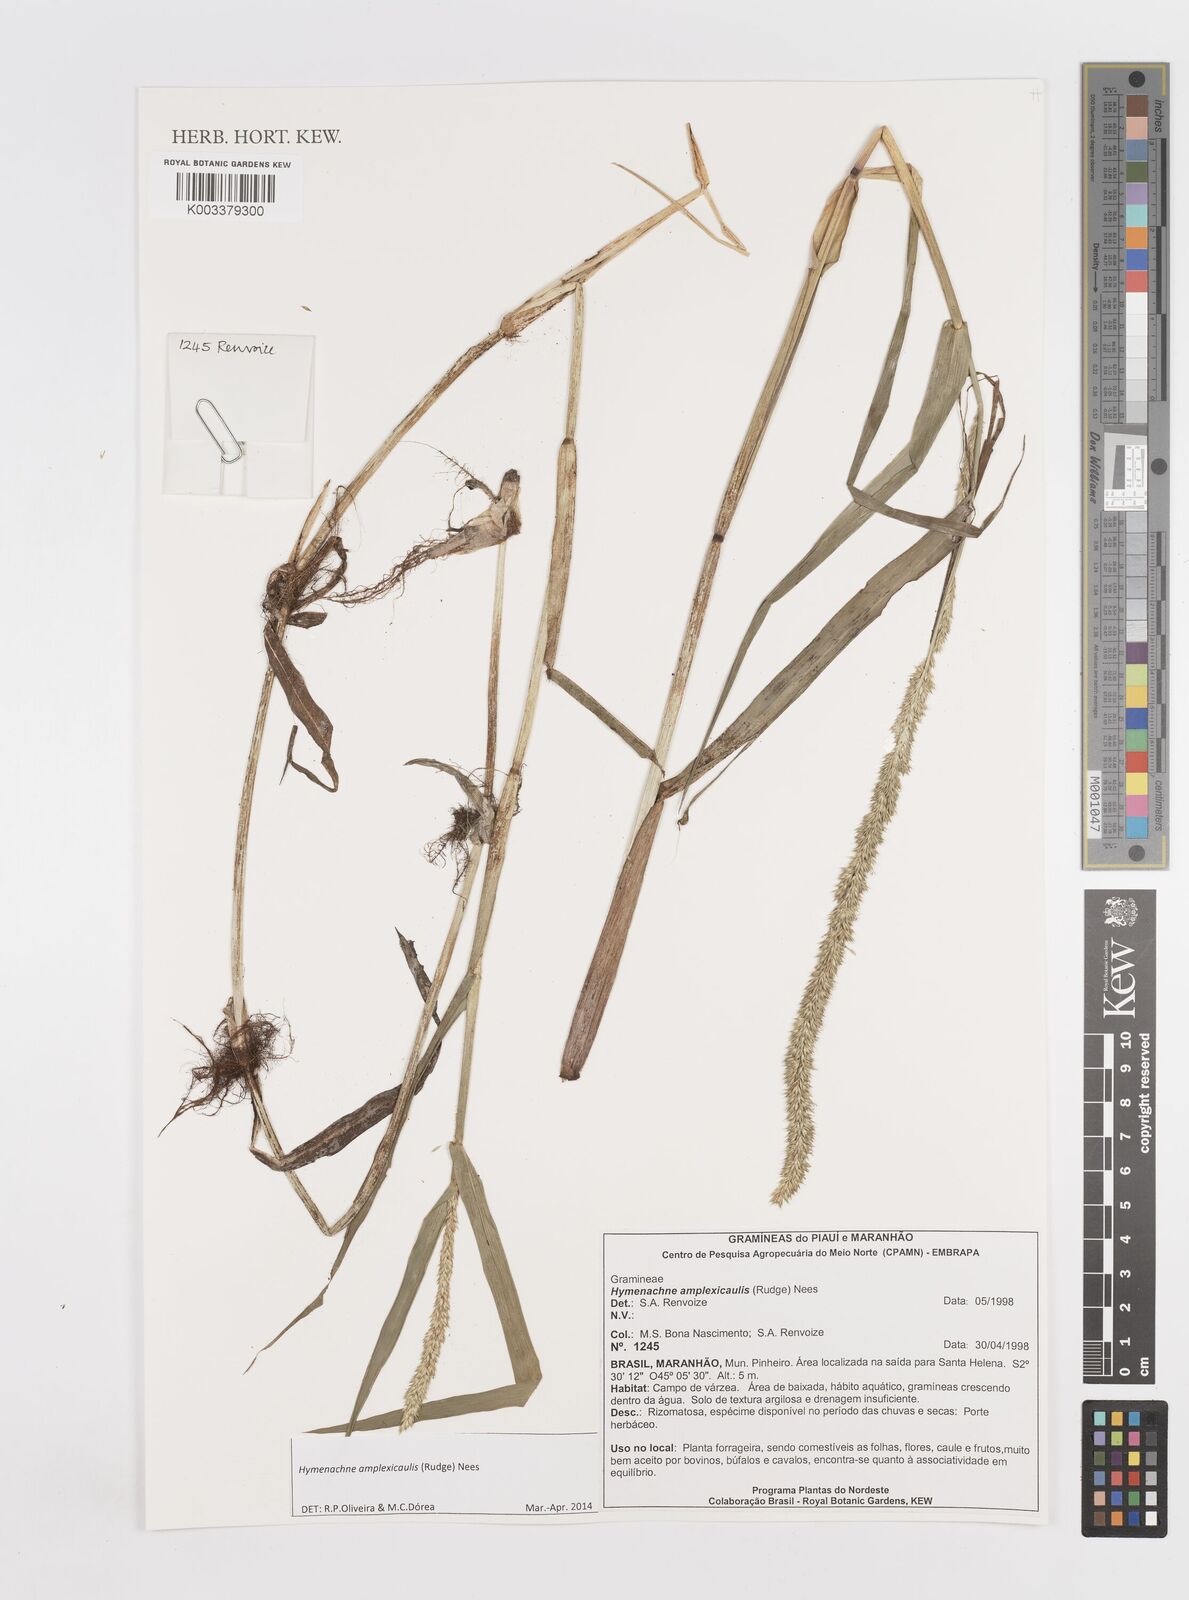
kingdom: Plantae
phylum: Tracheophyta
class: Liliopsida
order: Poales
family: Poaceae
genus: Hymenachne
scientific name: Hymenachne amplexicaulis
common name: Olive hymenachne
